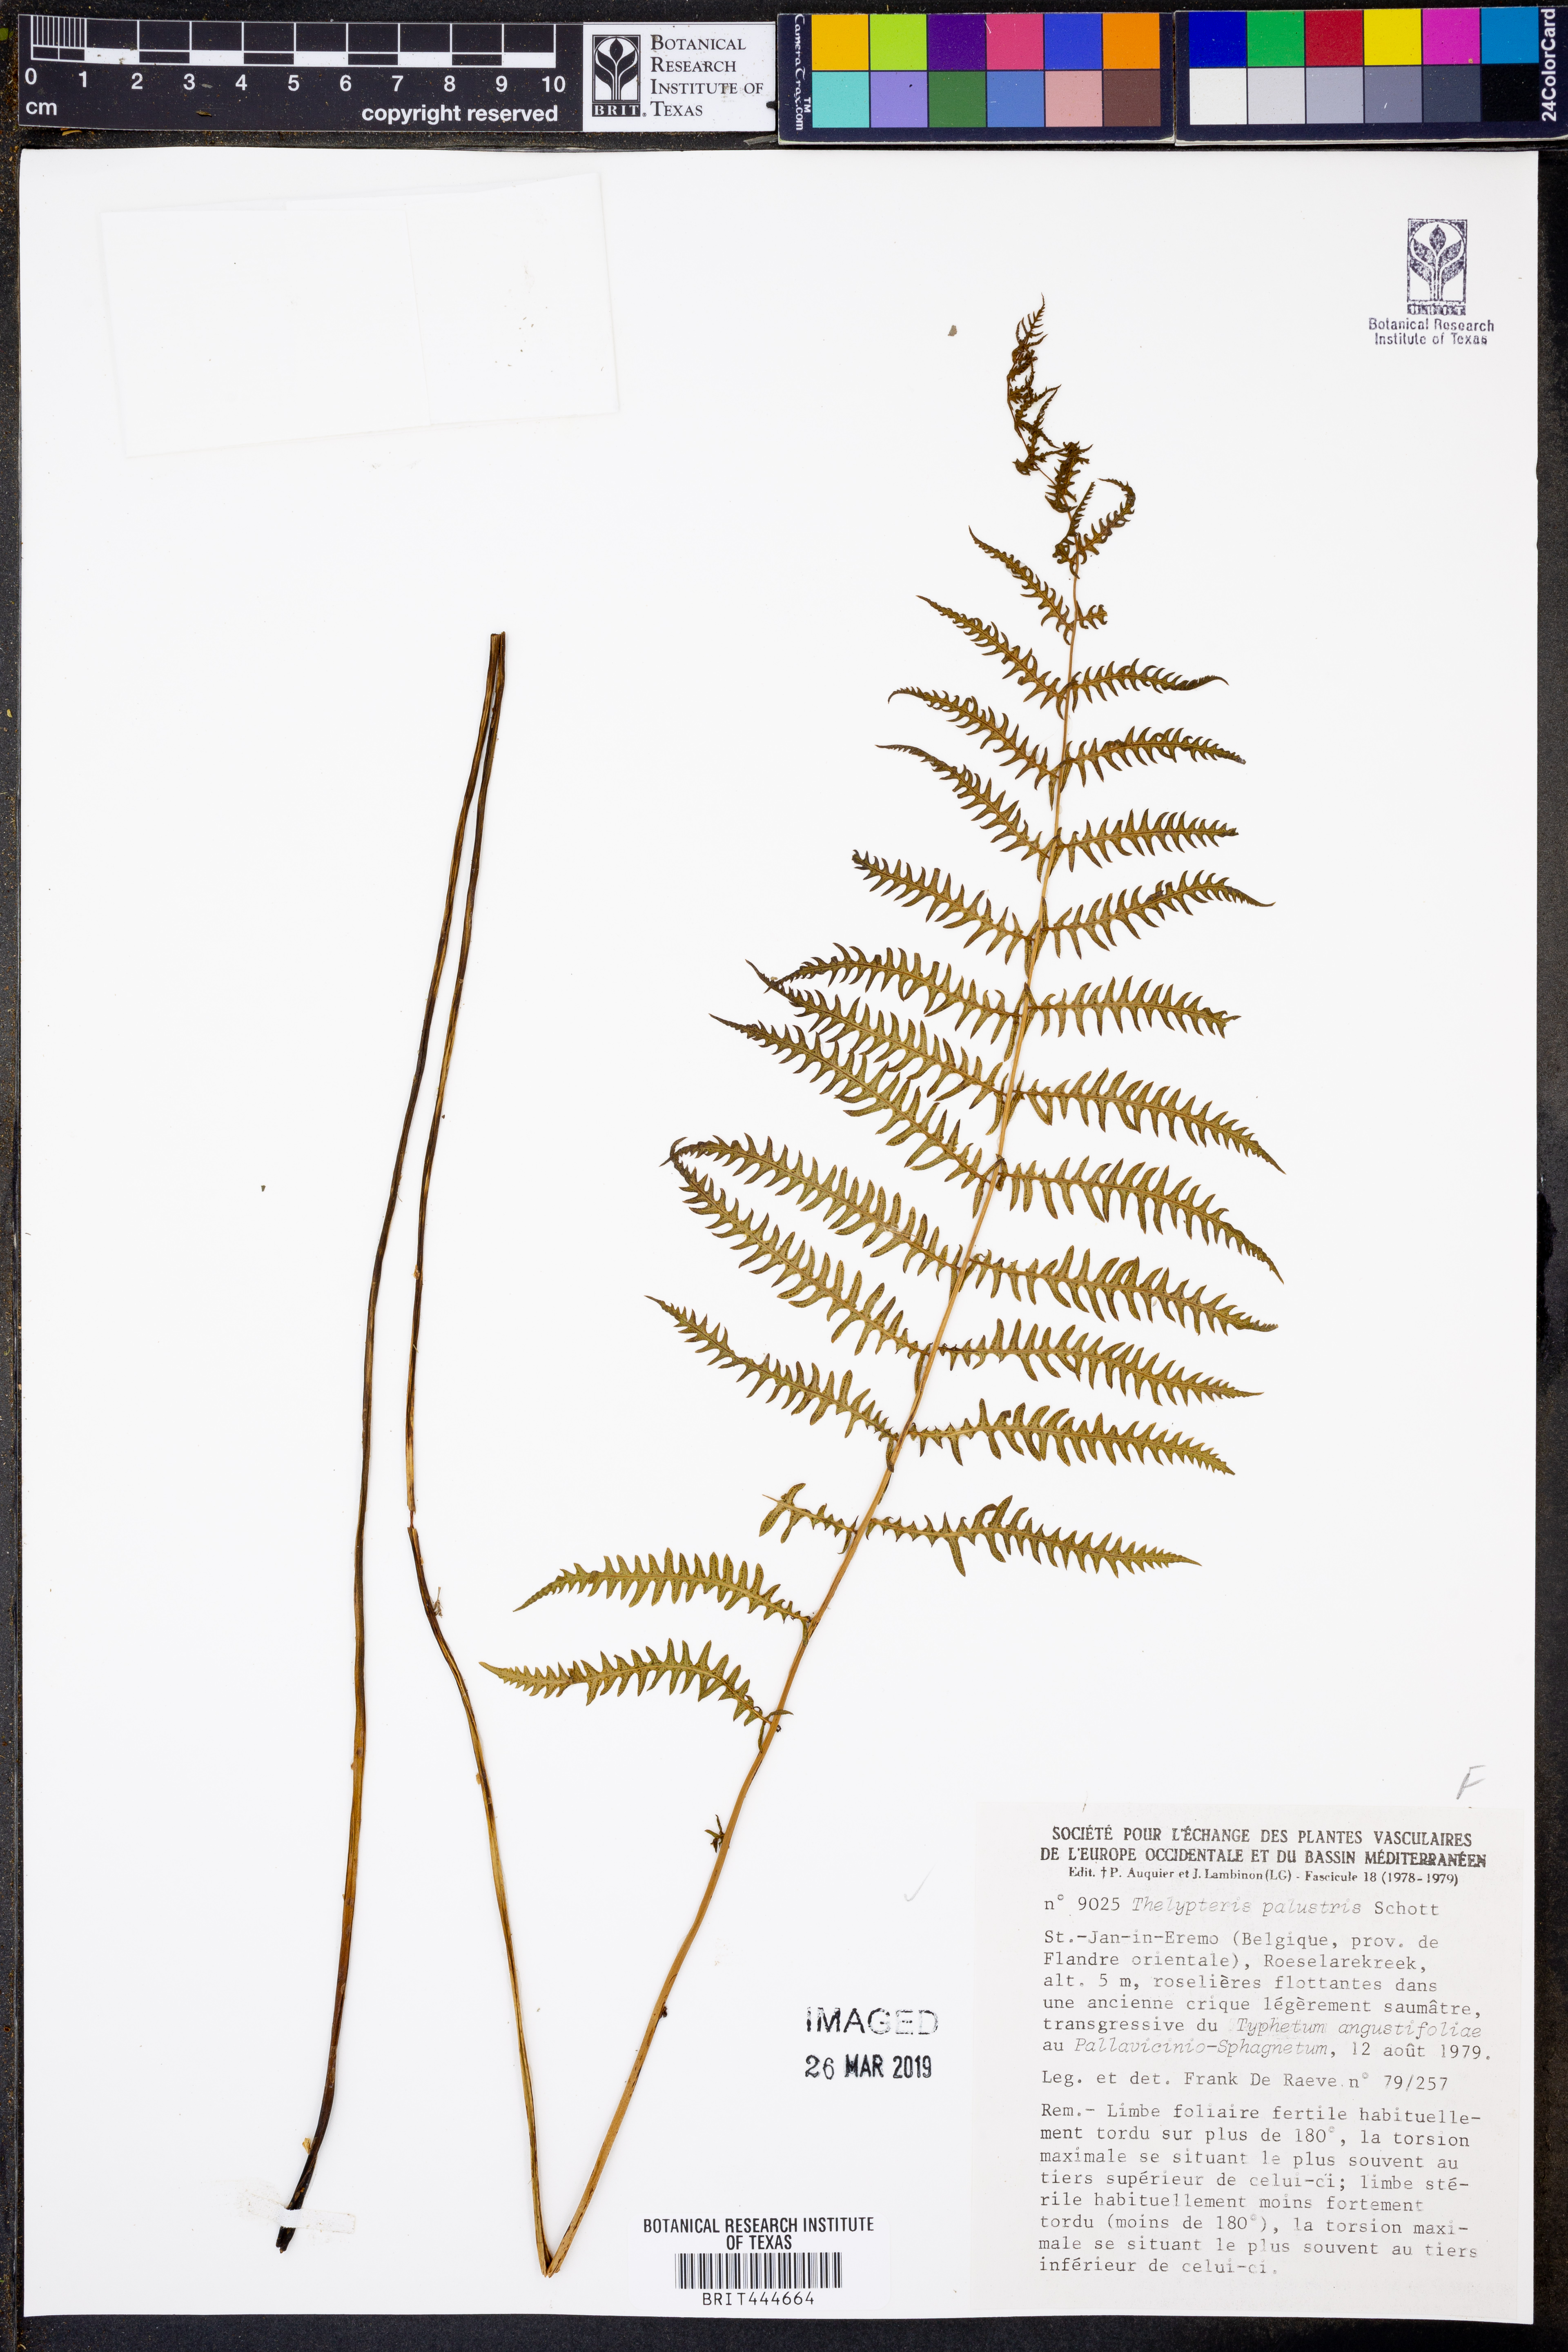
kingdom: Plantae
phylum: Tracheophyta
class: Polypodiopsida
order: Polypodiales
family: Thelypteridaceae
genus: Thelypteris
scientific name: Thelypteris palustris
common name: Marsh fern
